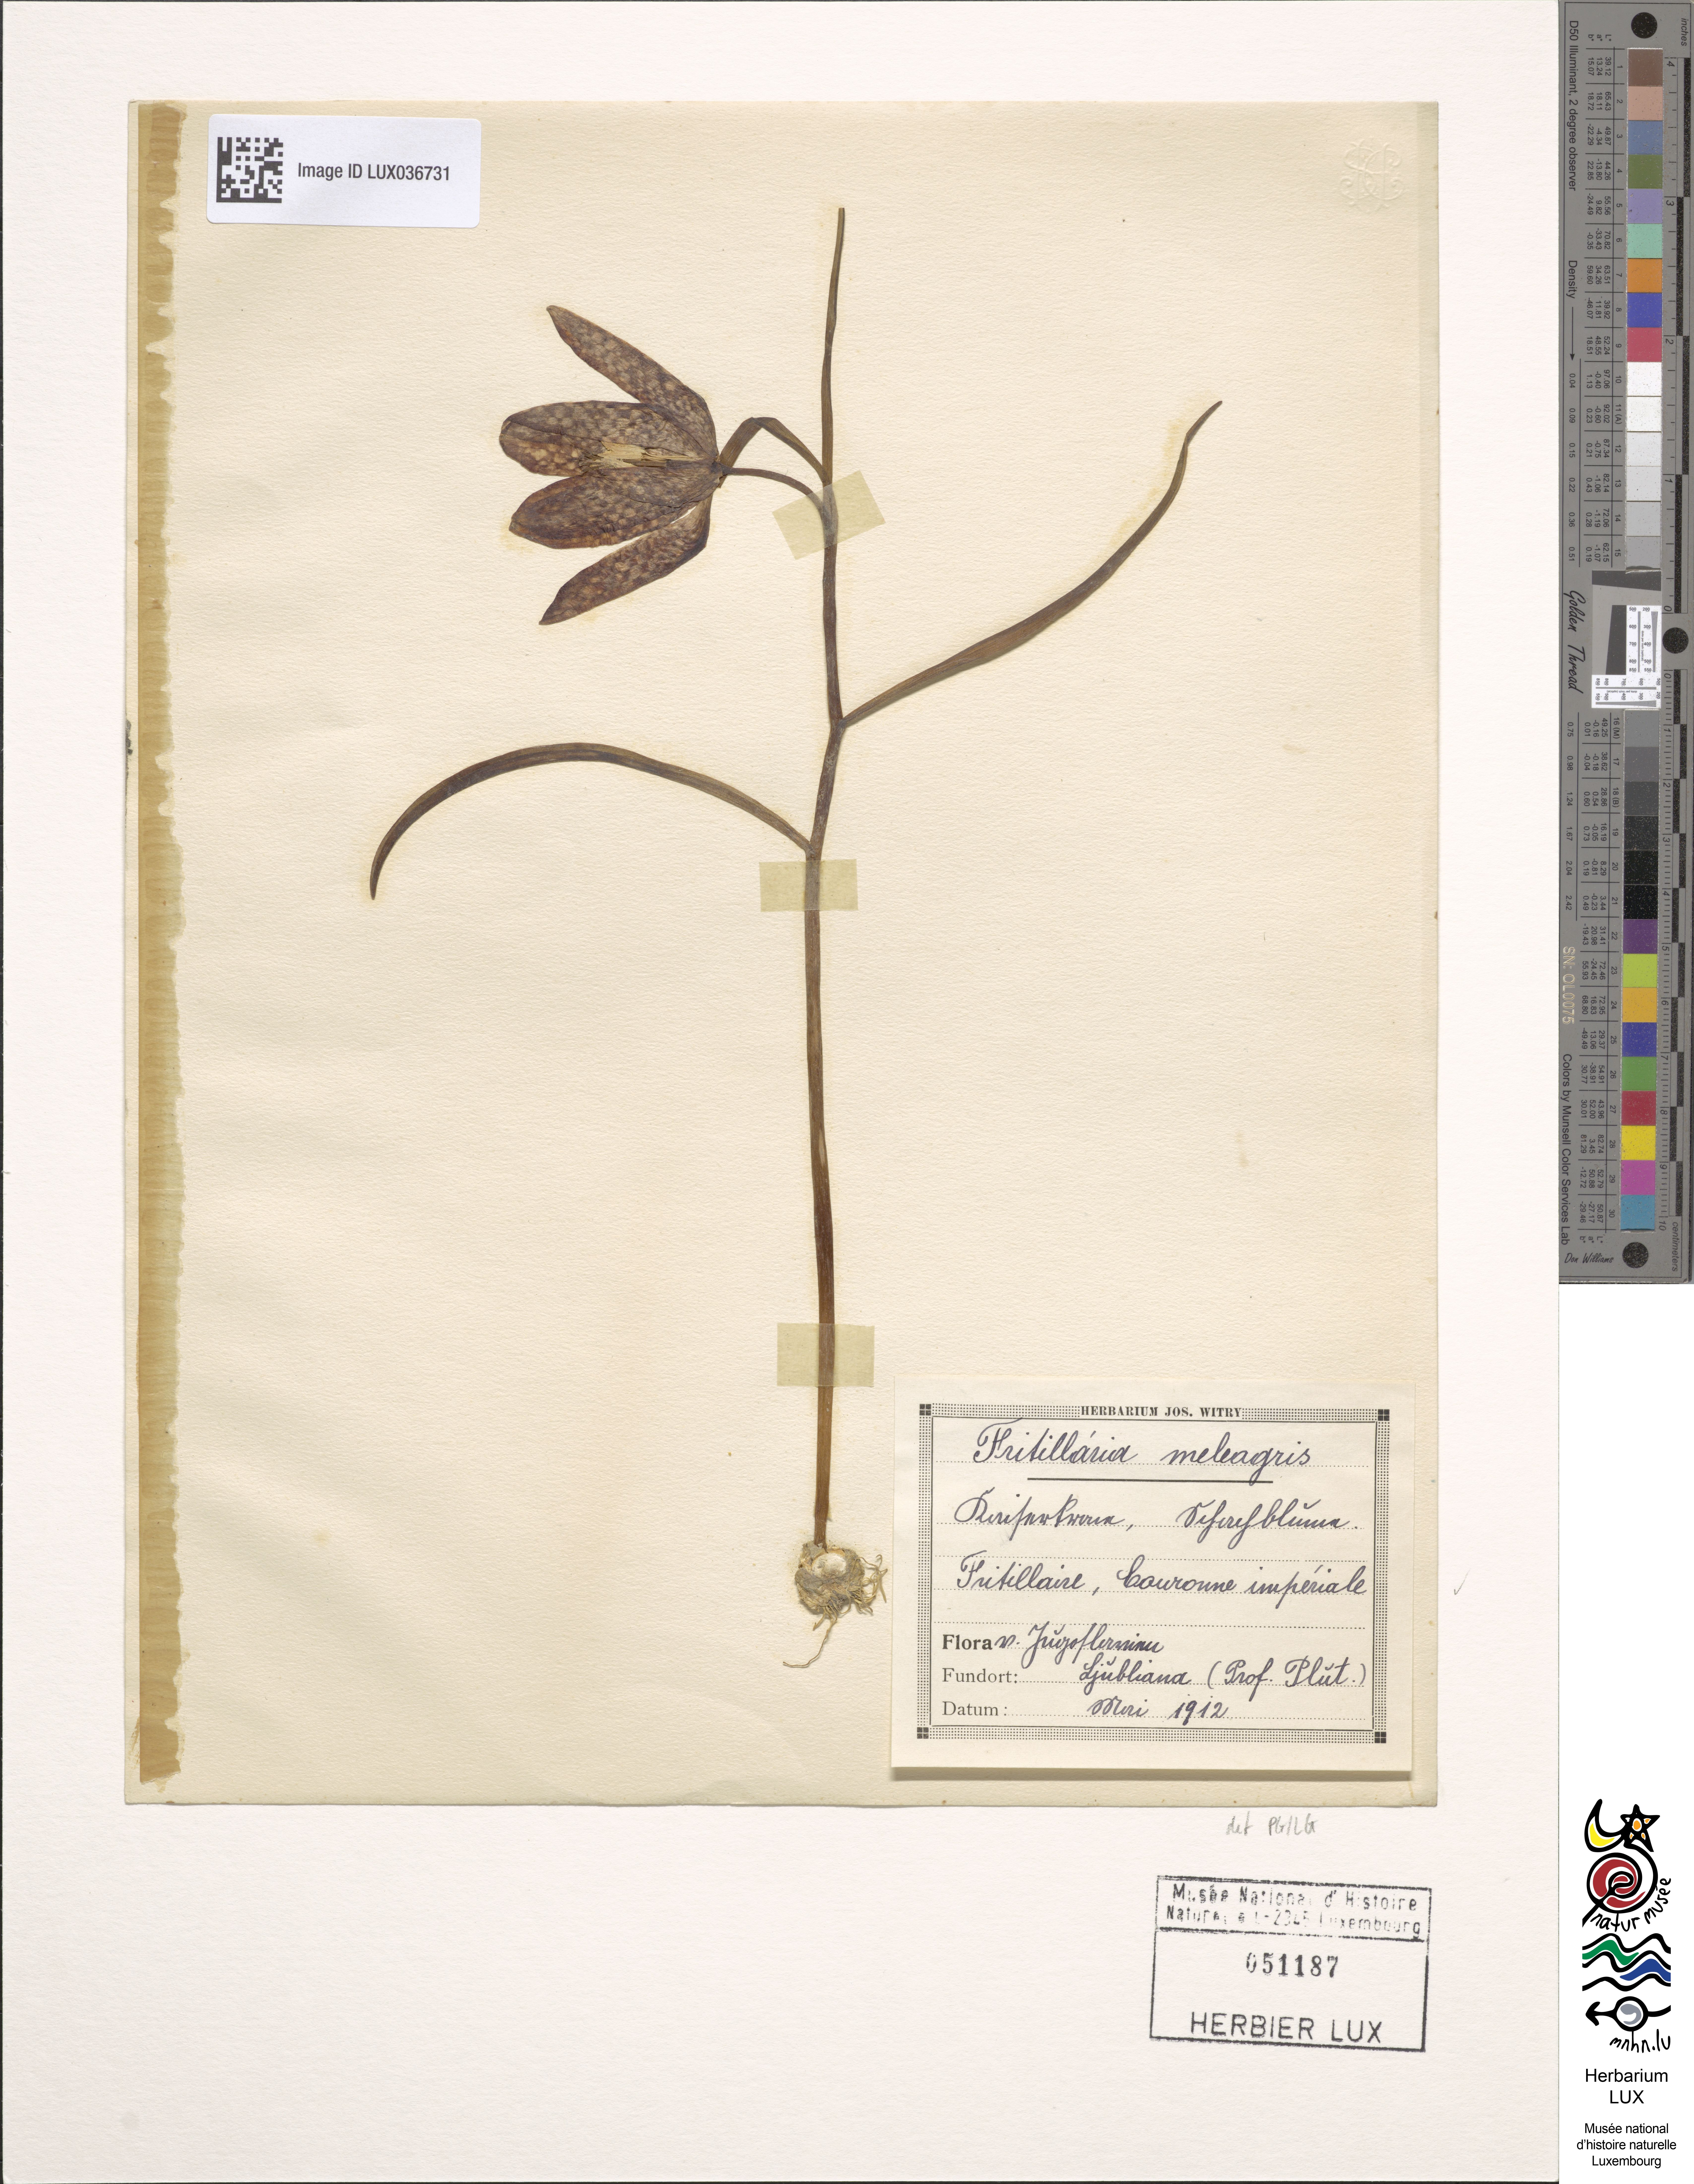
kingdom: Plantae
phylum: Tracheophyta
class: Liliopsida
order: Liliales
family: Liliaceae
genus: Fritillaria
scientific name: Fritillaria meleagris
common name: Fritillary
